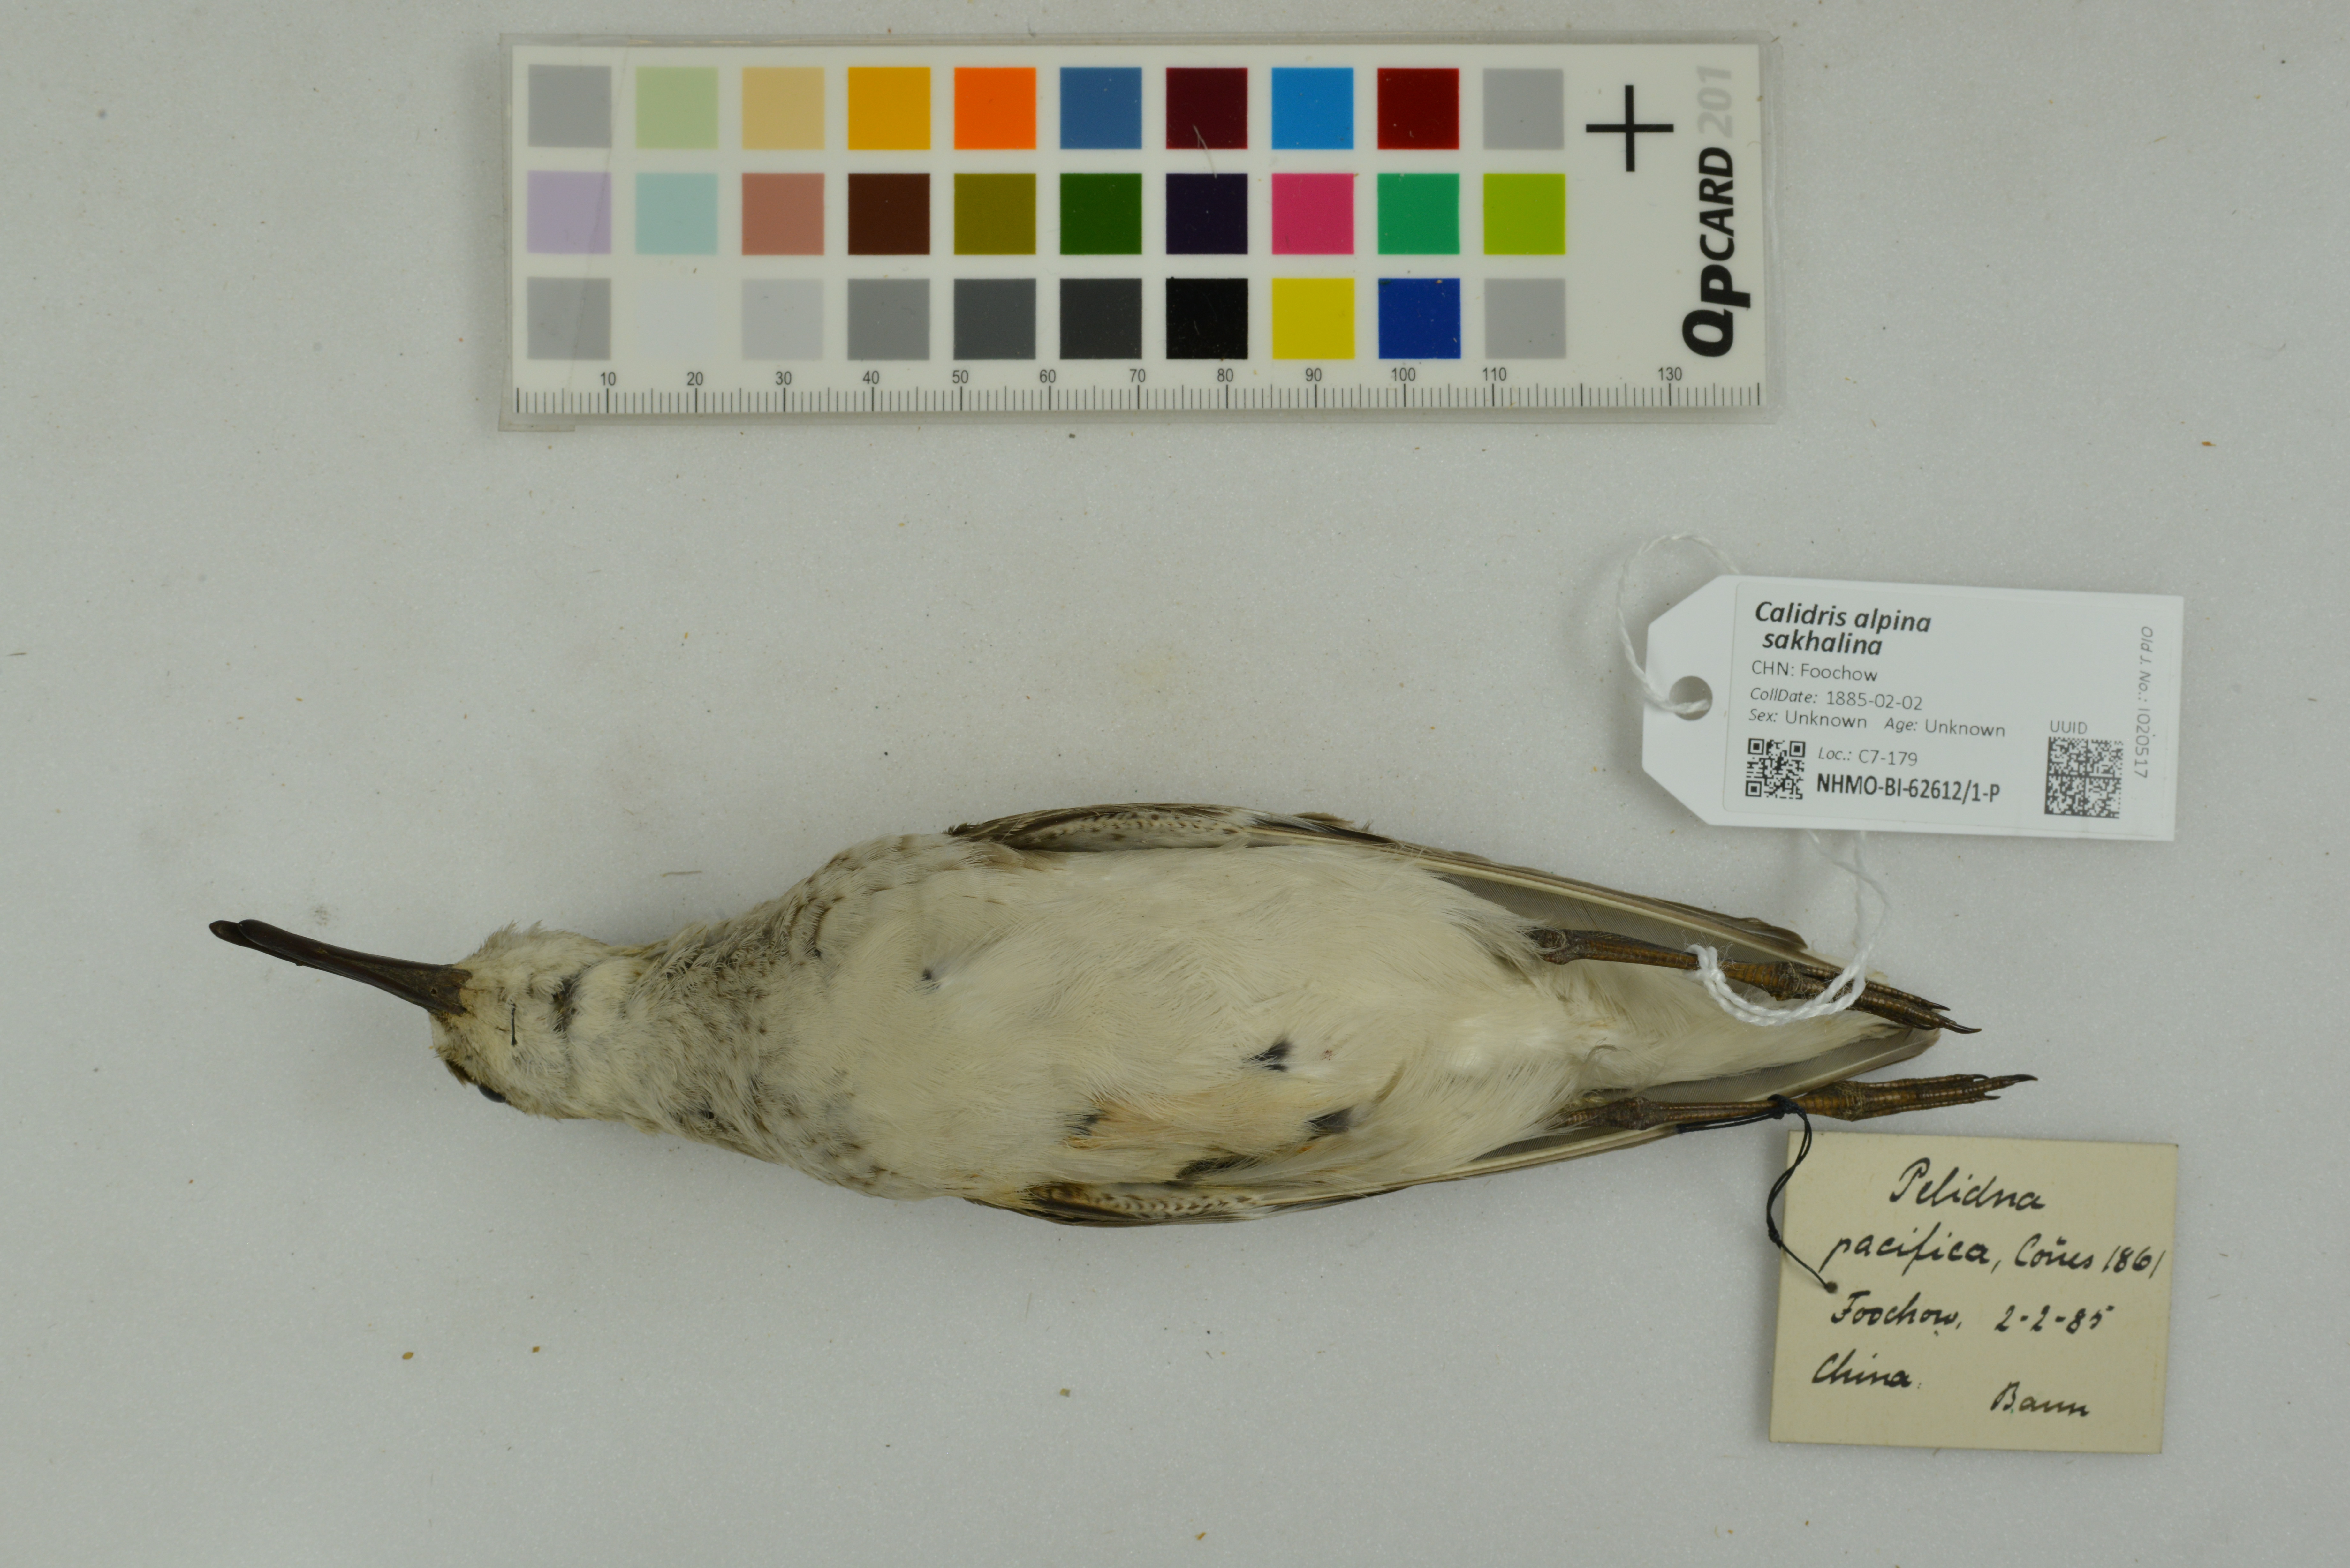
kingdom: Animalia
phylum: Chordata
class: Aves
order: Charadriiformes
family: Scolopacidae
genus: Calidris
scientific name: Calidris alpina
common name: Dunlin
